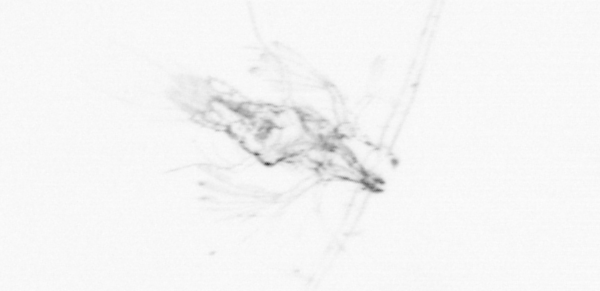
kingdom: Animalia
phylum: Arthropoda
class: Copepoda
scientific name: Copepoda
